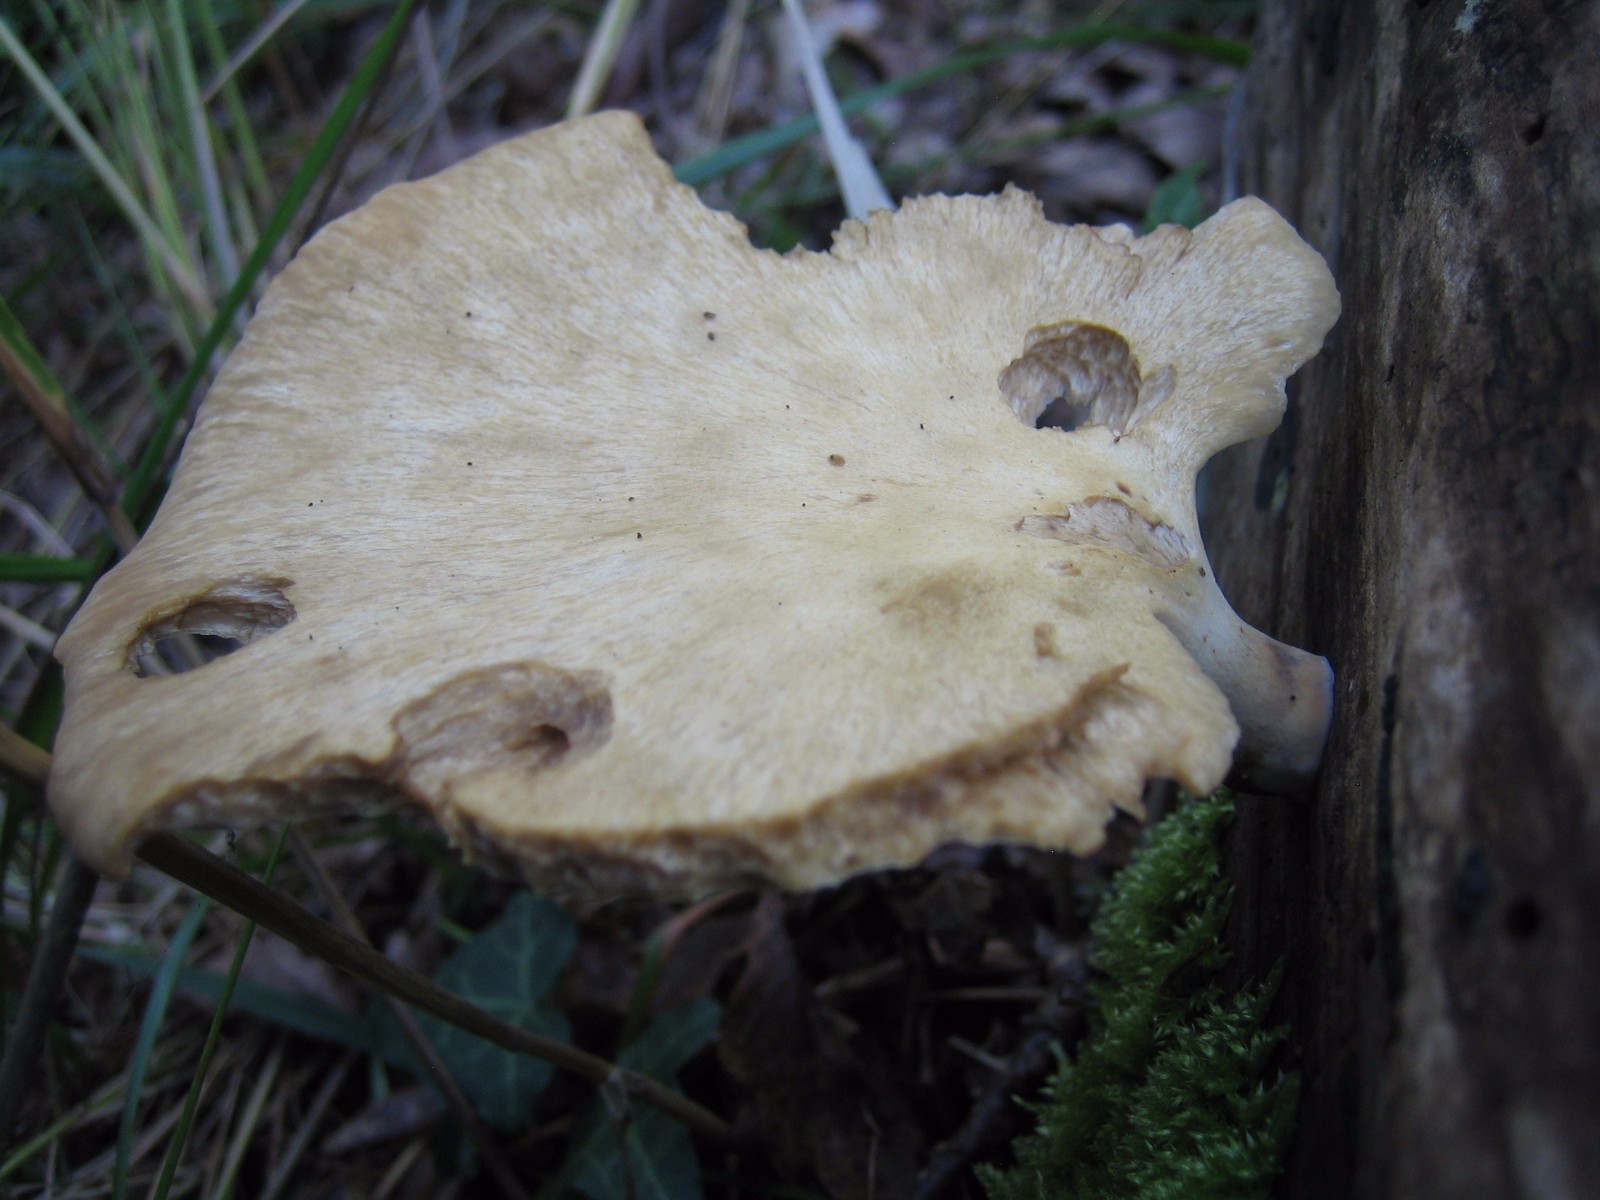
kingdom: Fungi
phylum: Basidiomycota
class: Agaricomycetes
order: Polyporales
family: Polyporaceae
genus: Cerioporus
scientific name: Cerioporus varius
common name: foranderlig stilkporesvamp
